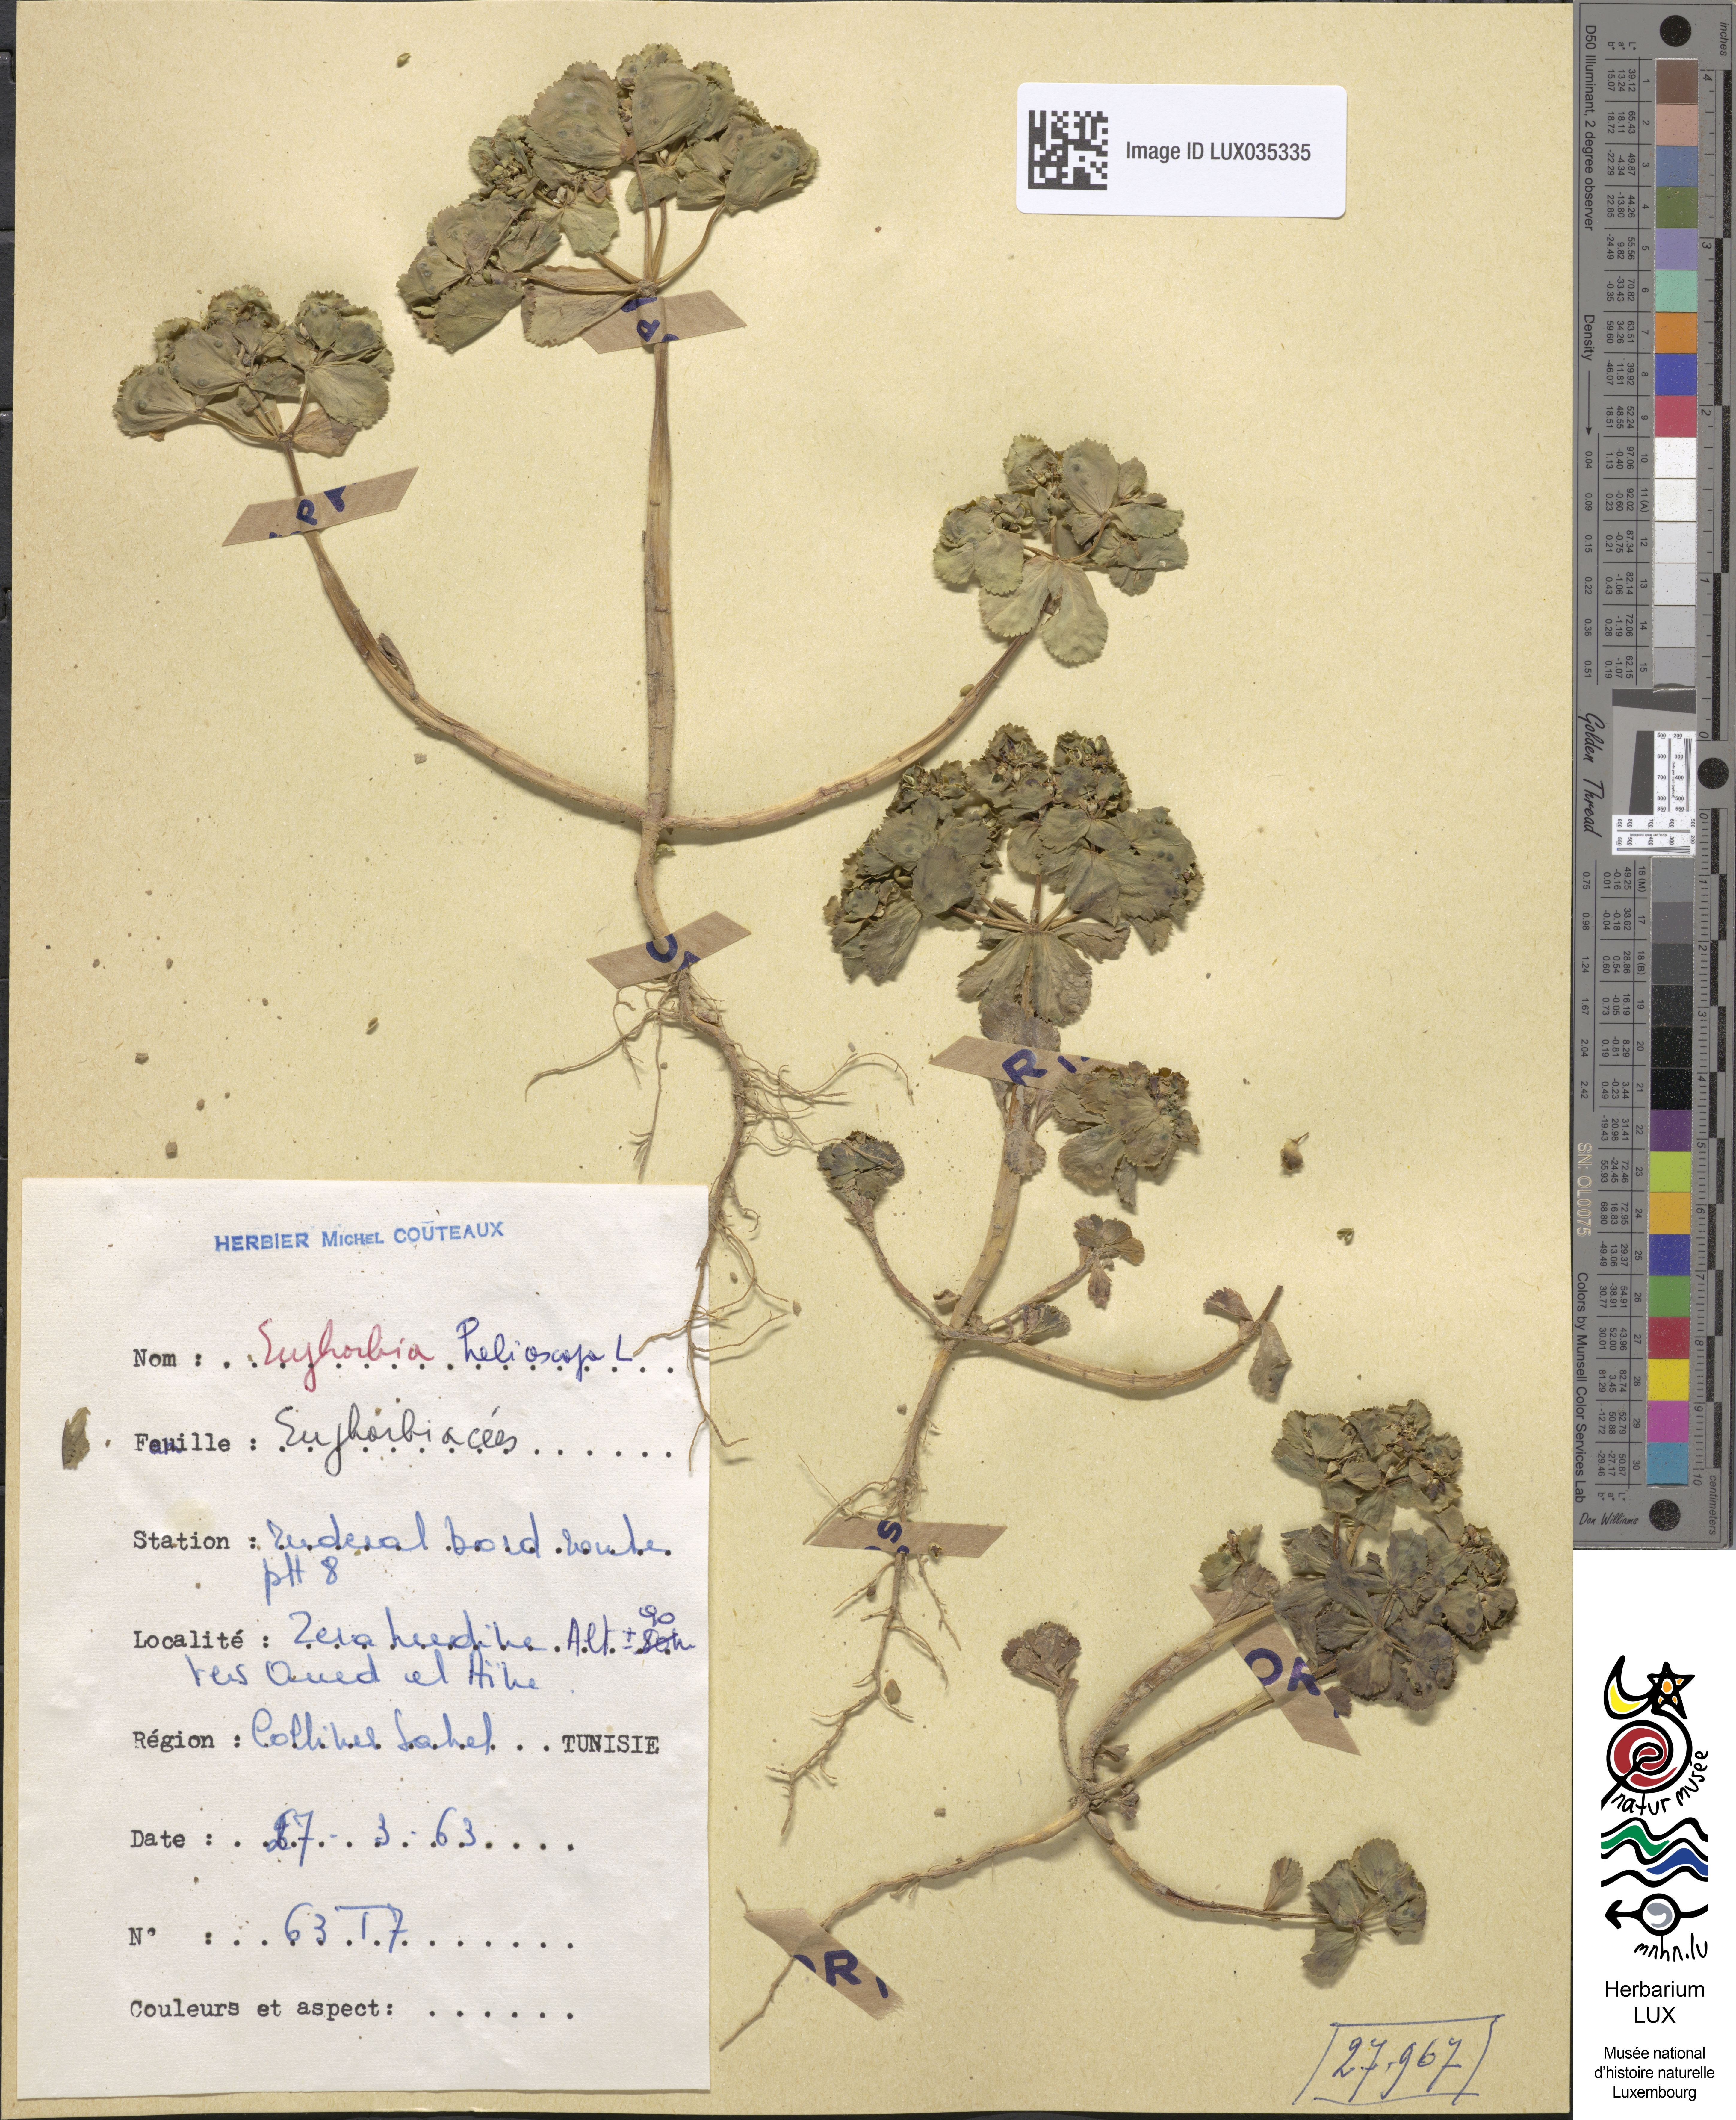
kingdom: Plantae
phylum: Tracheophyta
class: Magnoliopsida
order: Malpighiales
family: Euphorbiaceae
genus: Euphorbia
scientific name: Euphorbia helioscopia
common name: Sun spurge
